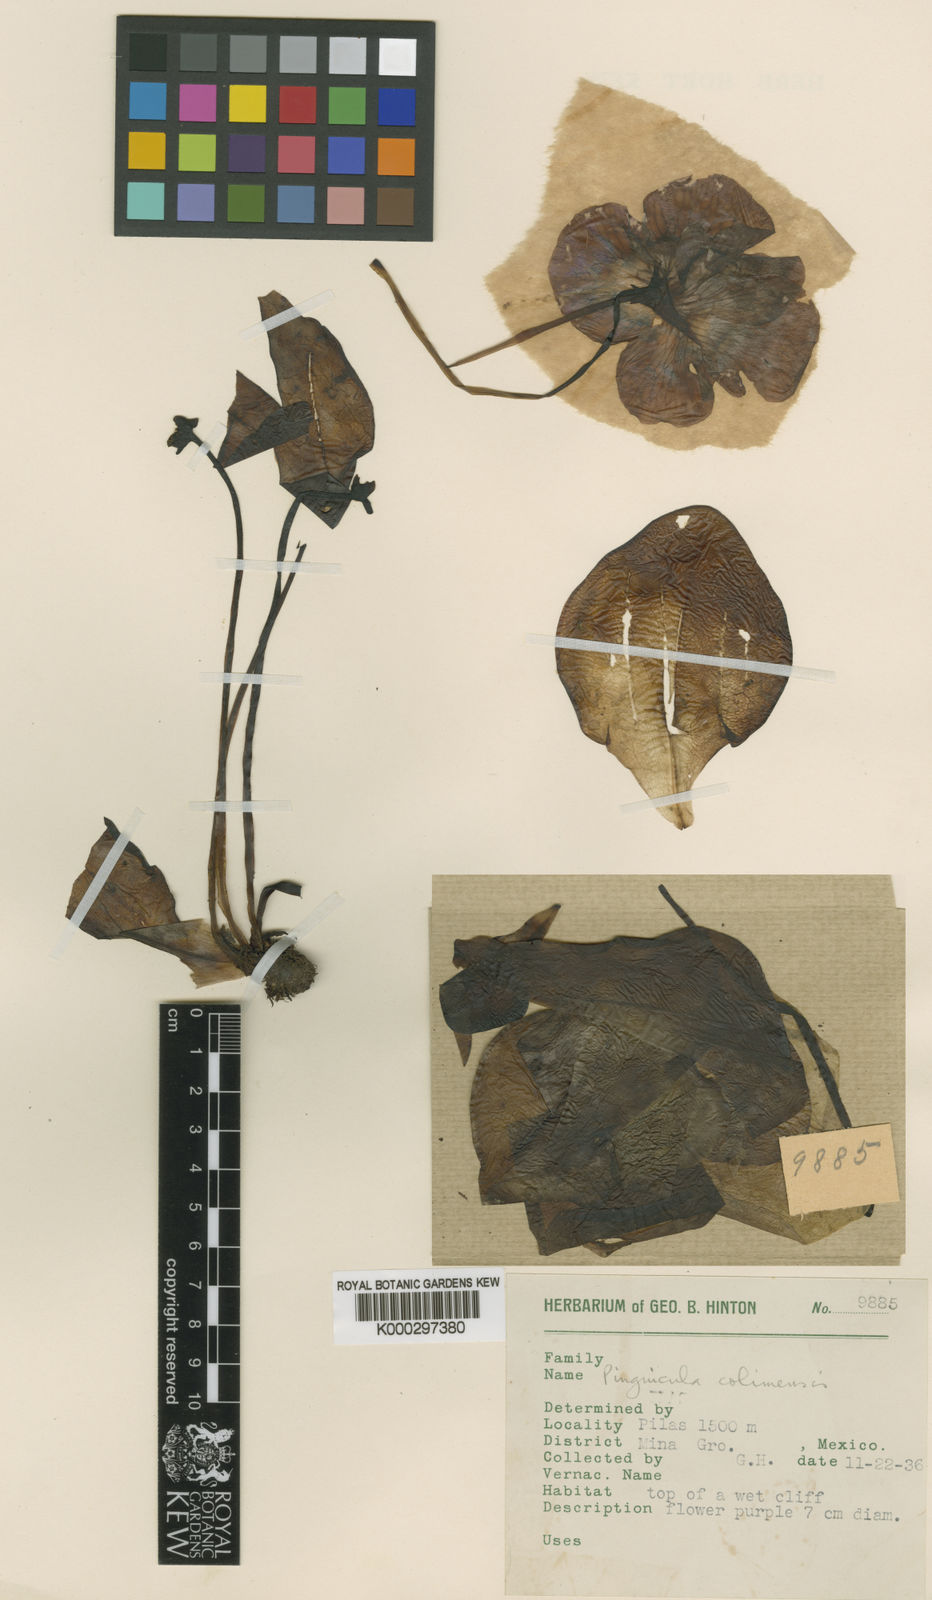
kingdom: Plantae
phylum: Tracheophyta
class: Magnoliopsida
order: Lamiales
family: Lentibulariaceae
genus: Pinguicula
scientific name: Pinguicula zecheri
